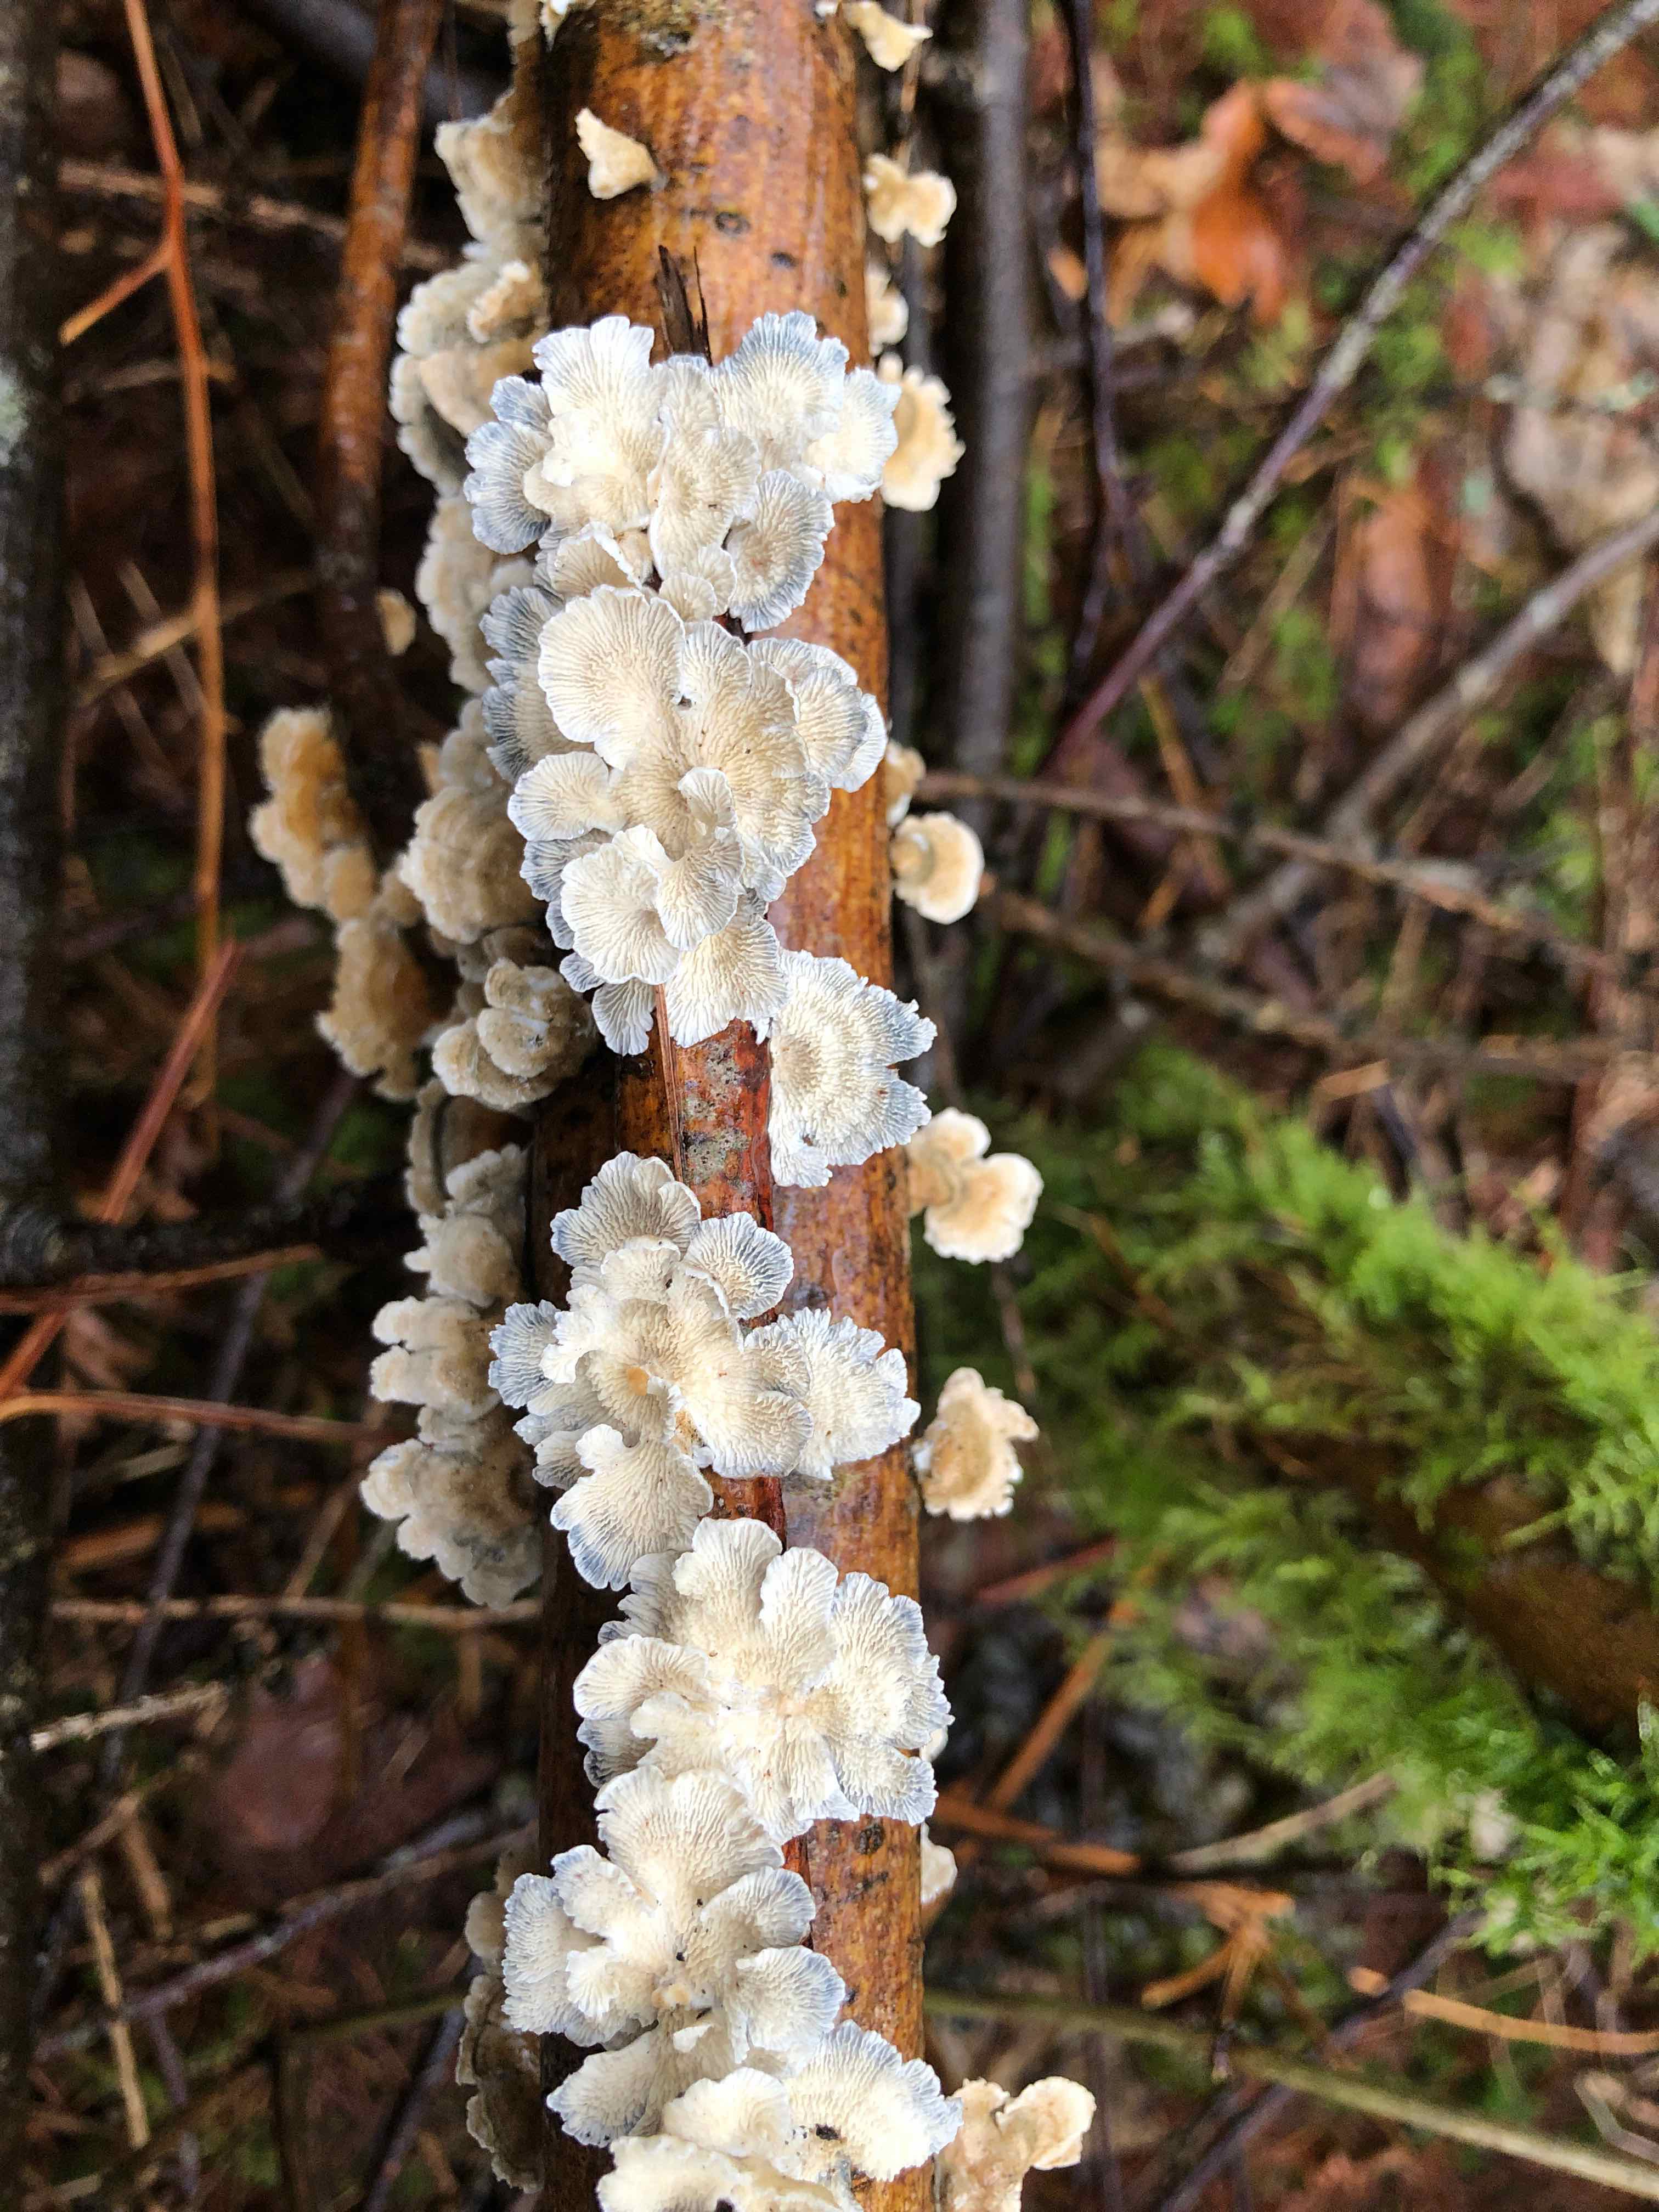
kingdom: Fungi
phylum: Basidiomycota
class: Agaricomycetes
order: Amylocorticiales
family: Amylocorticiaceae
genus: Plicaturopsis
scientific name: Plicaturopsis crispa
